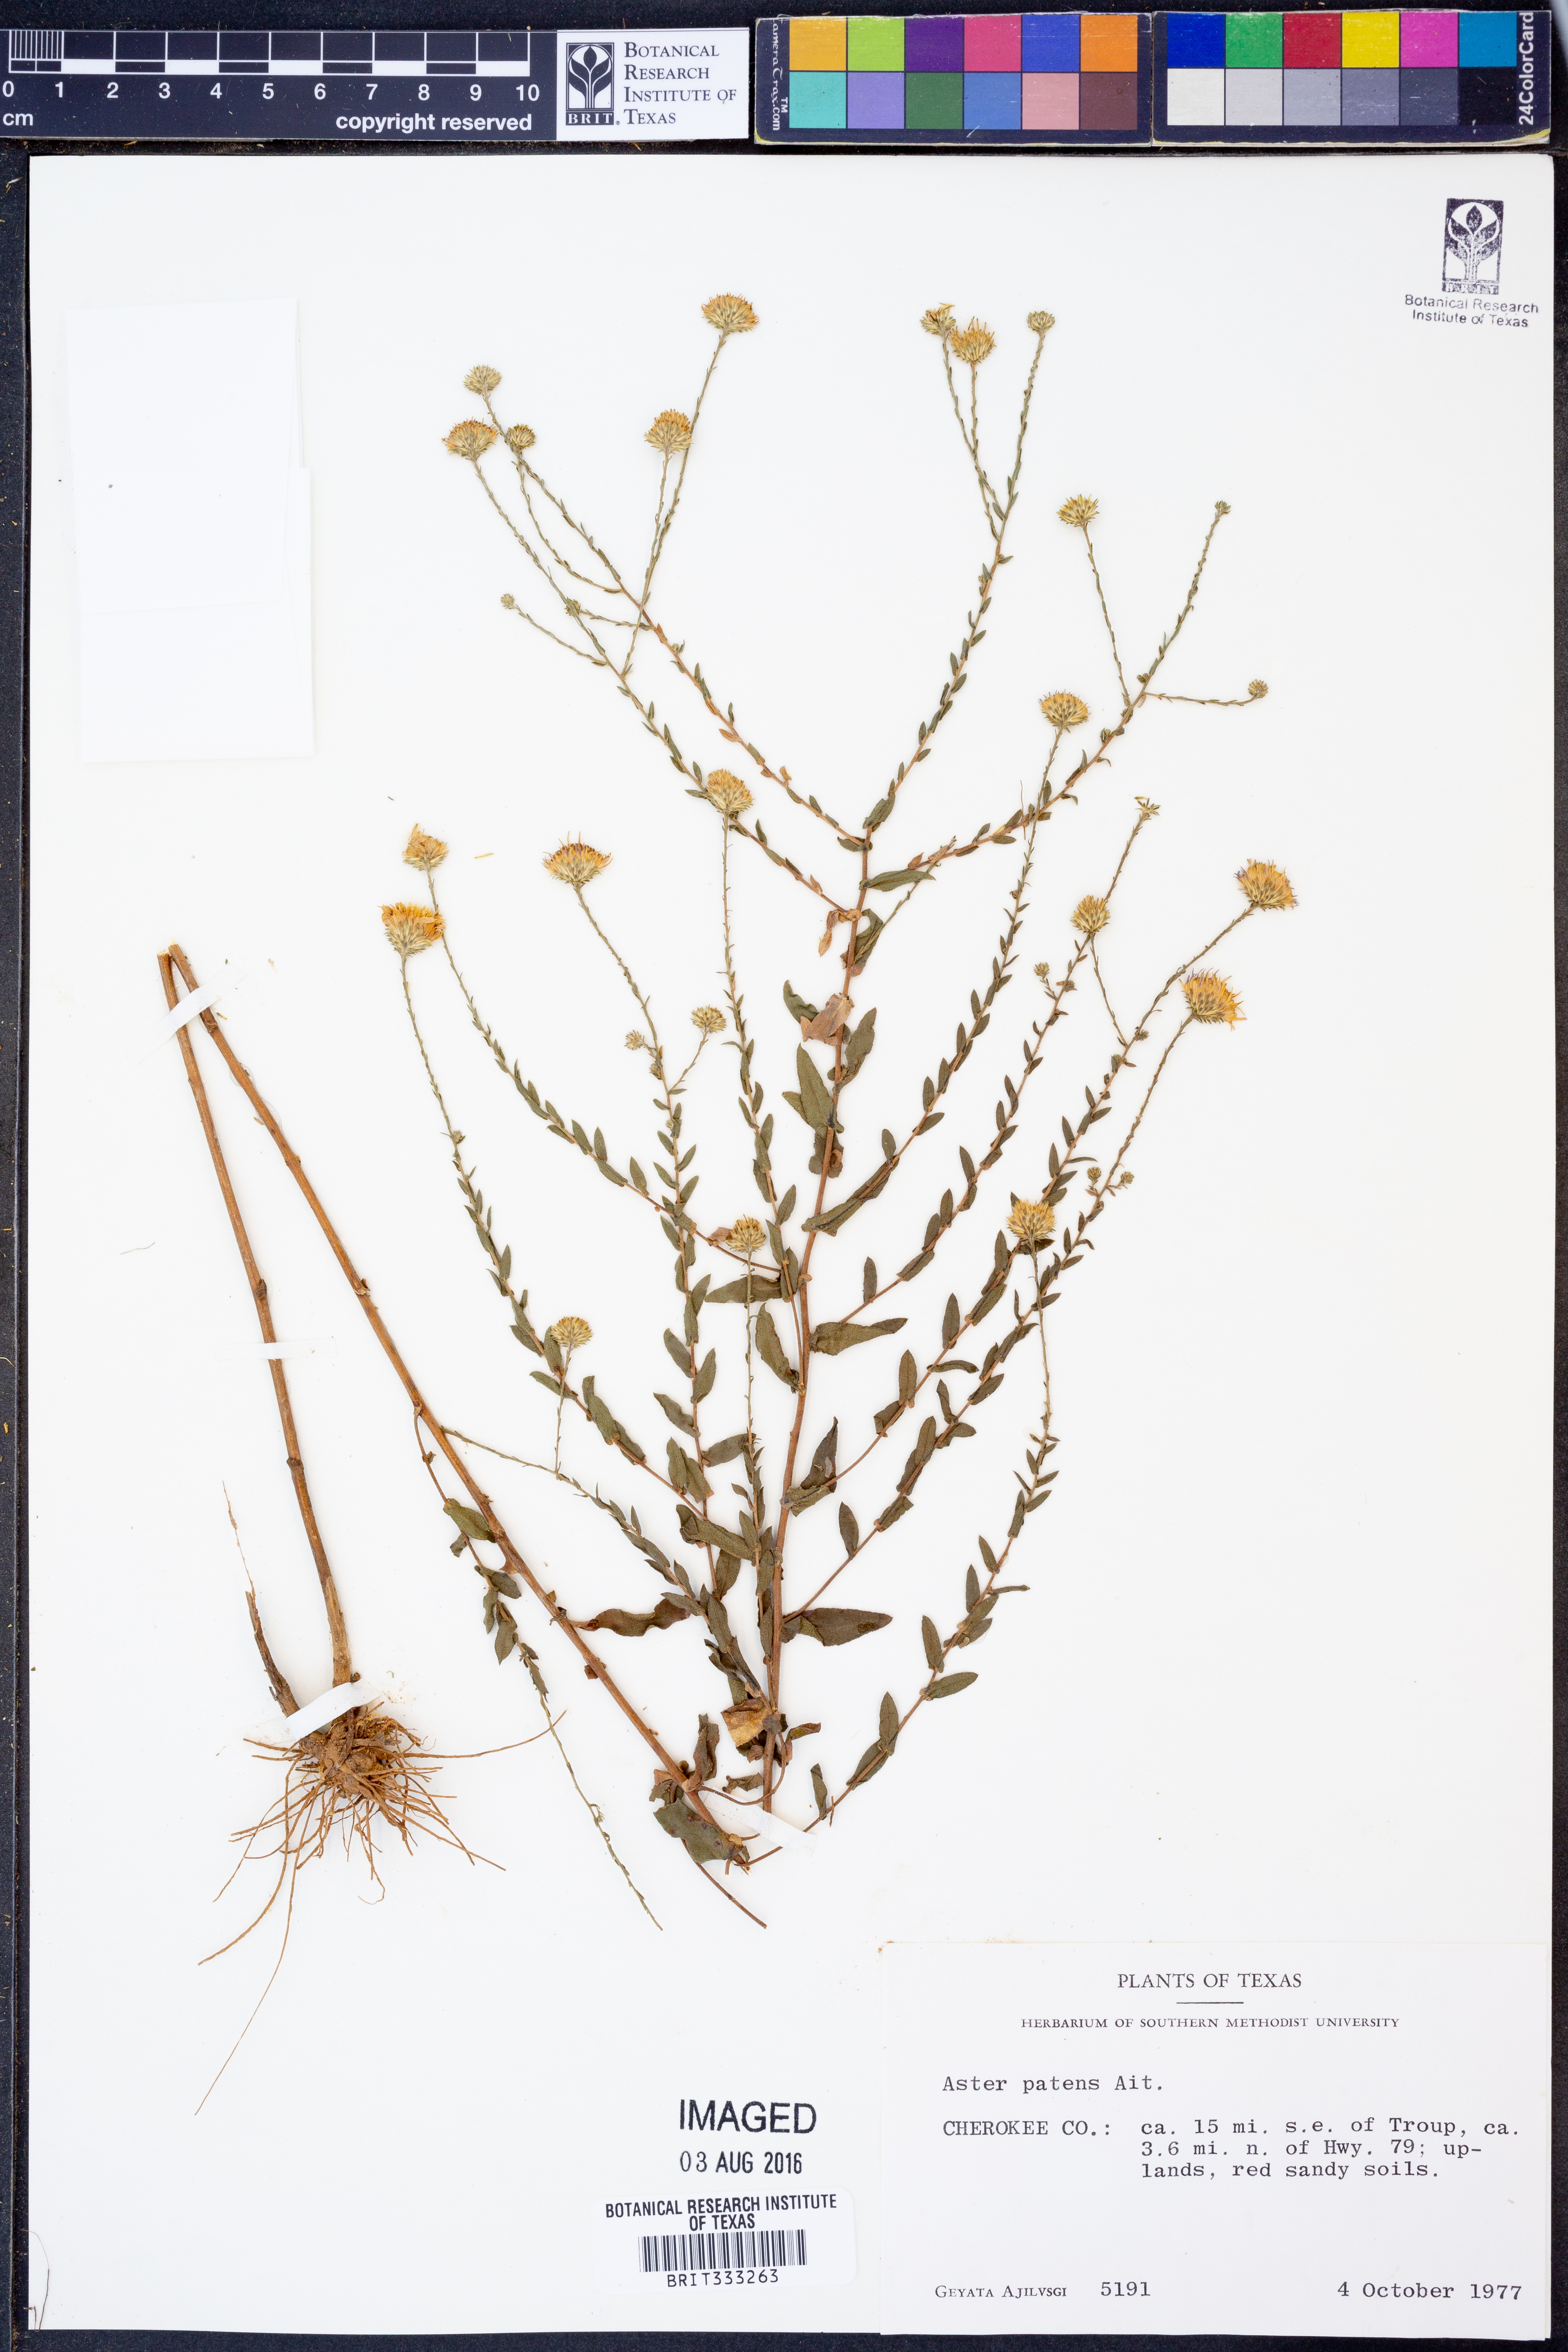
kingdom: Plantae
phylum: Tracheophyta
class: Magnoliopsida
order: Asterales
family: Asteraceae
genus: Symphyotrichum
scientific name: Symphyotrichum patens
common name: Late purple aster
